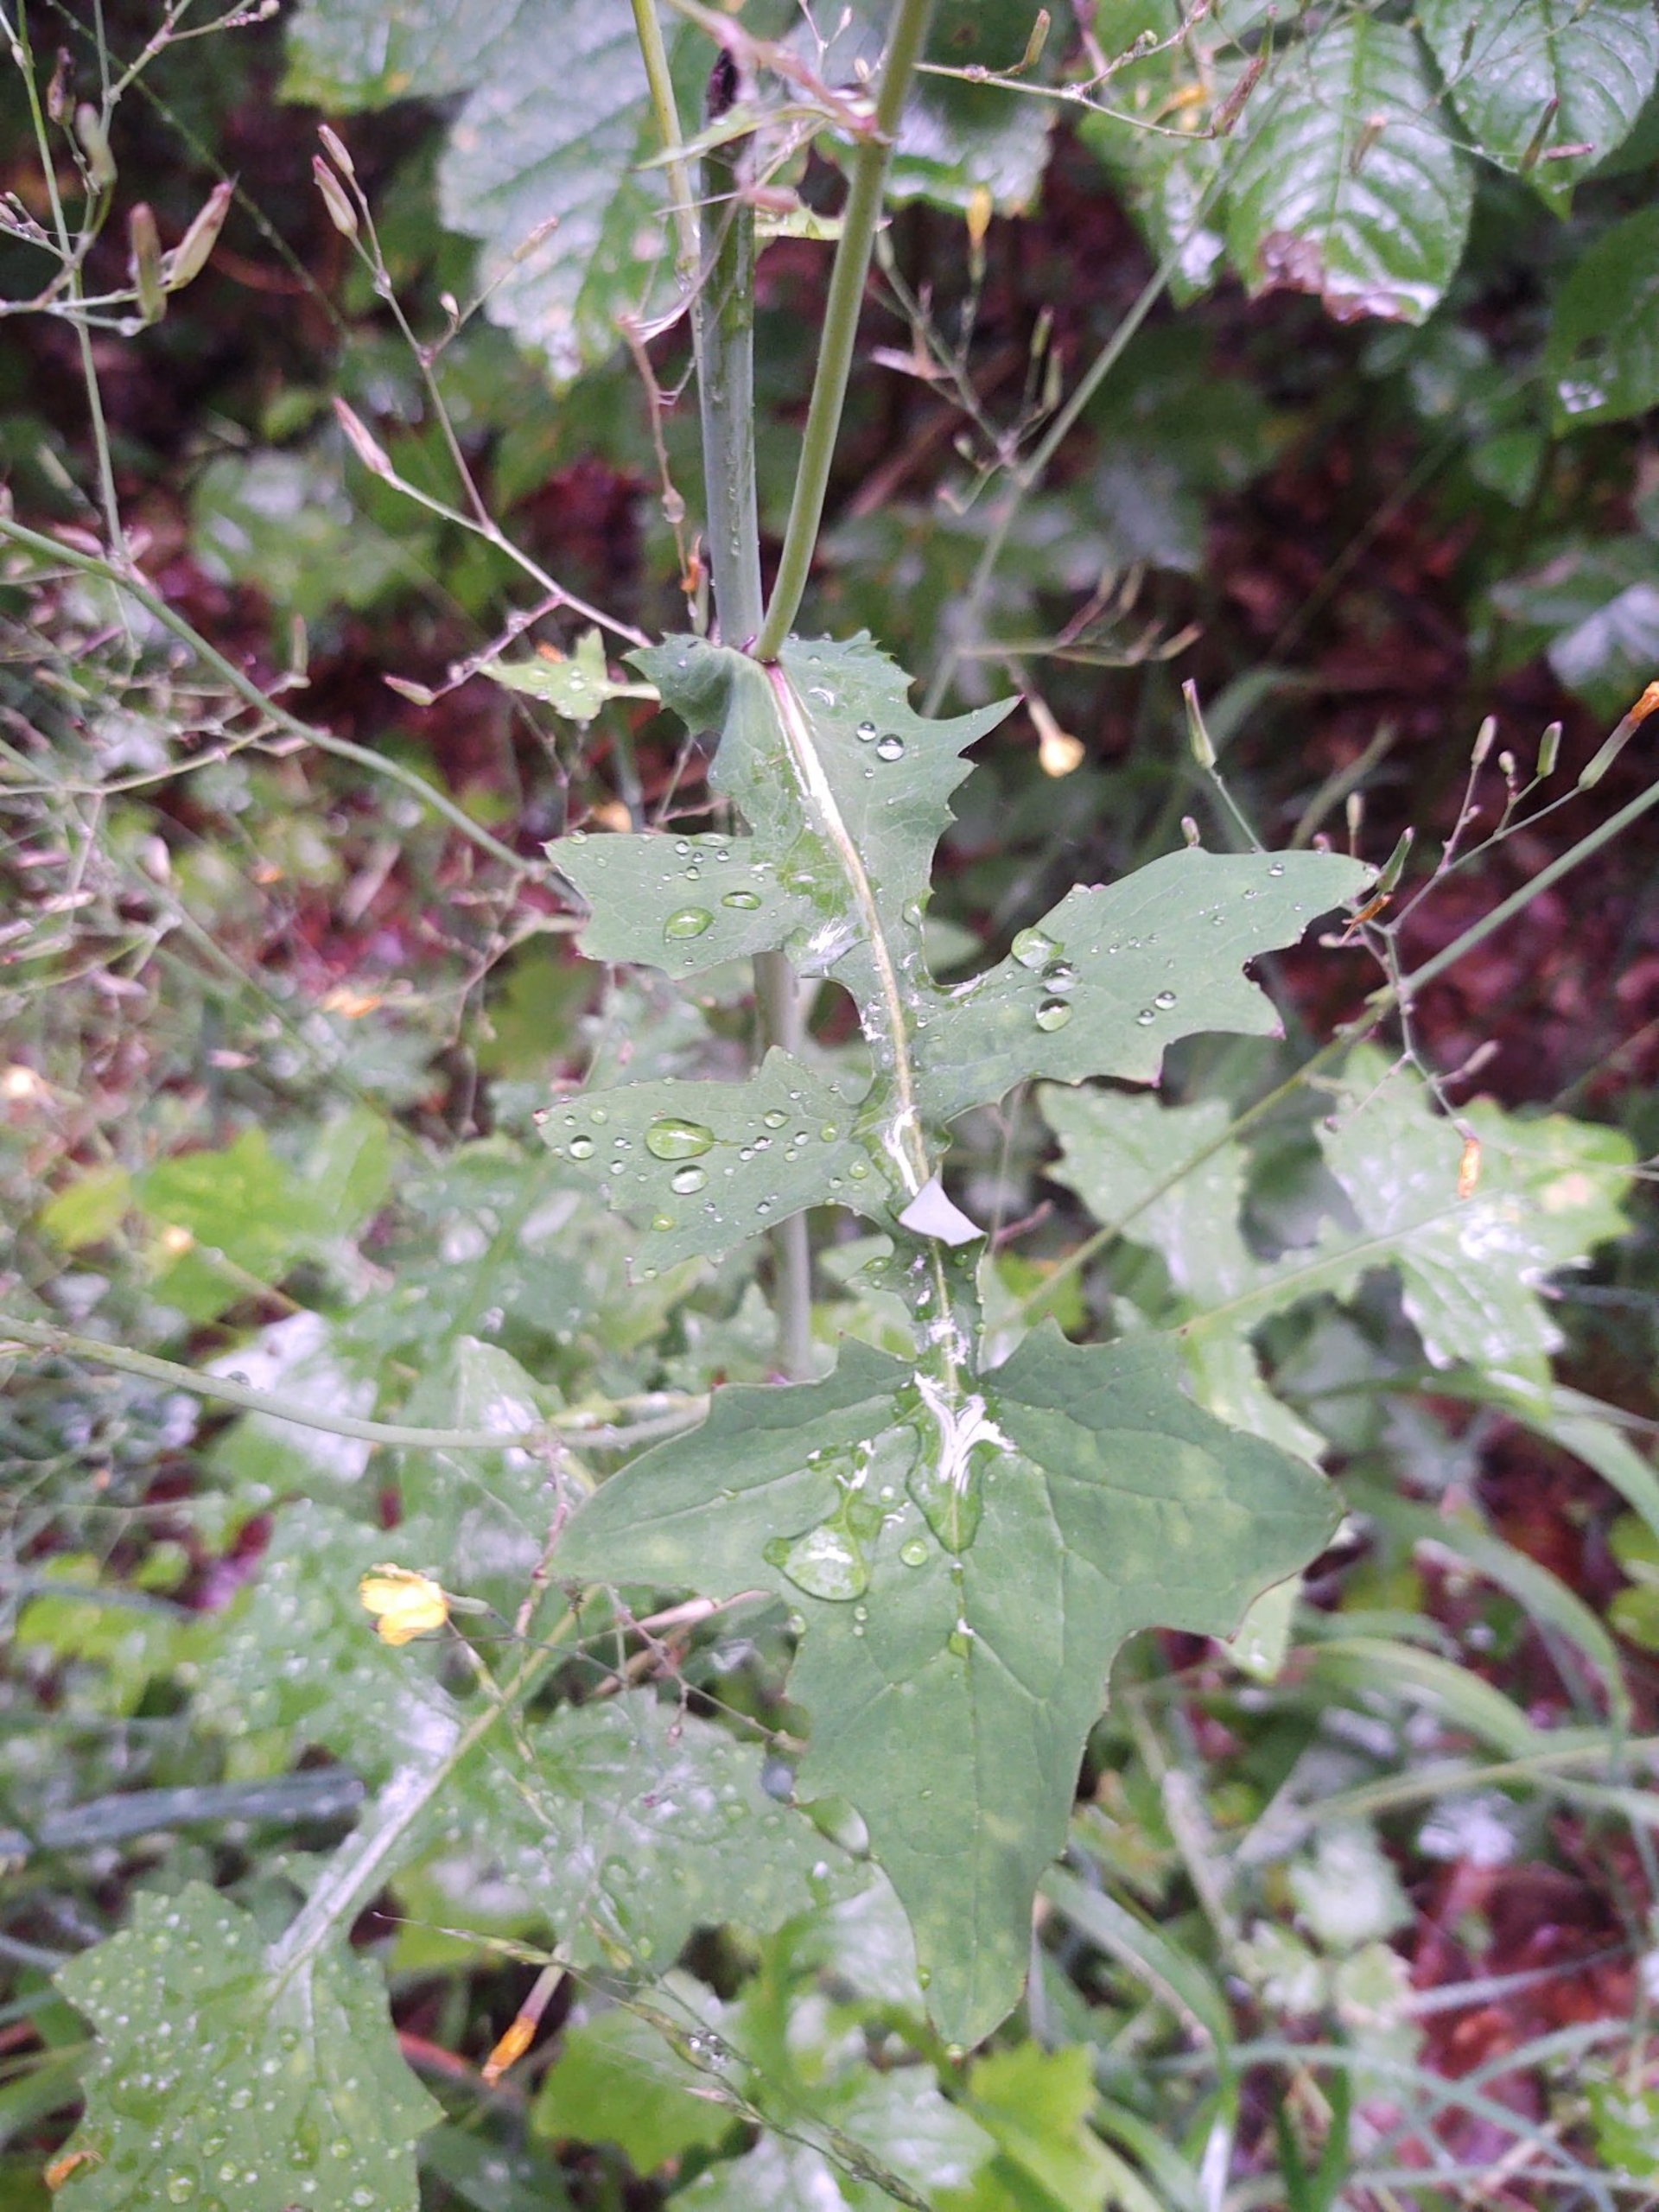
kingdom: Plantae
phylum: Tracheophyta
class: Magnoliopsida
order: Asterales
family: Asteraceae
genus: Mycelis
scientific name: Mycelis muralis
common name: Skov-salat
